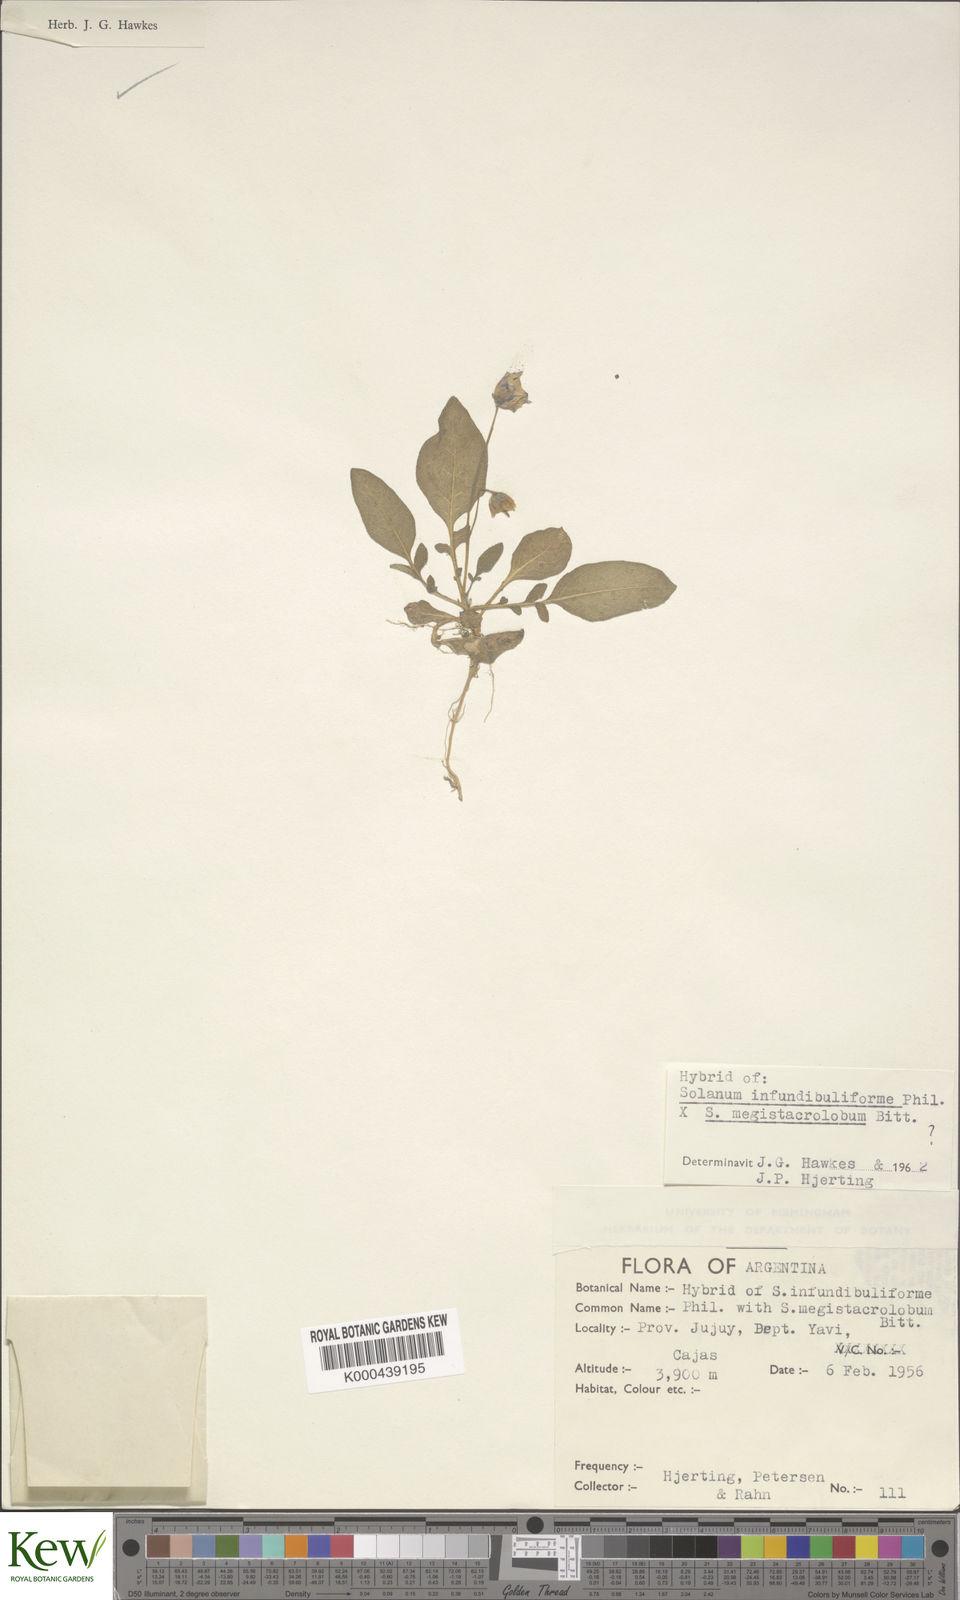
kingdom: Plantae
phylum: Tracheophyta
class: Magnoliopsida
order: Solanales
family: Solanaceae
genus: Solanum
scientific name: Solanum infundibuliforme
